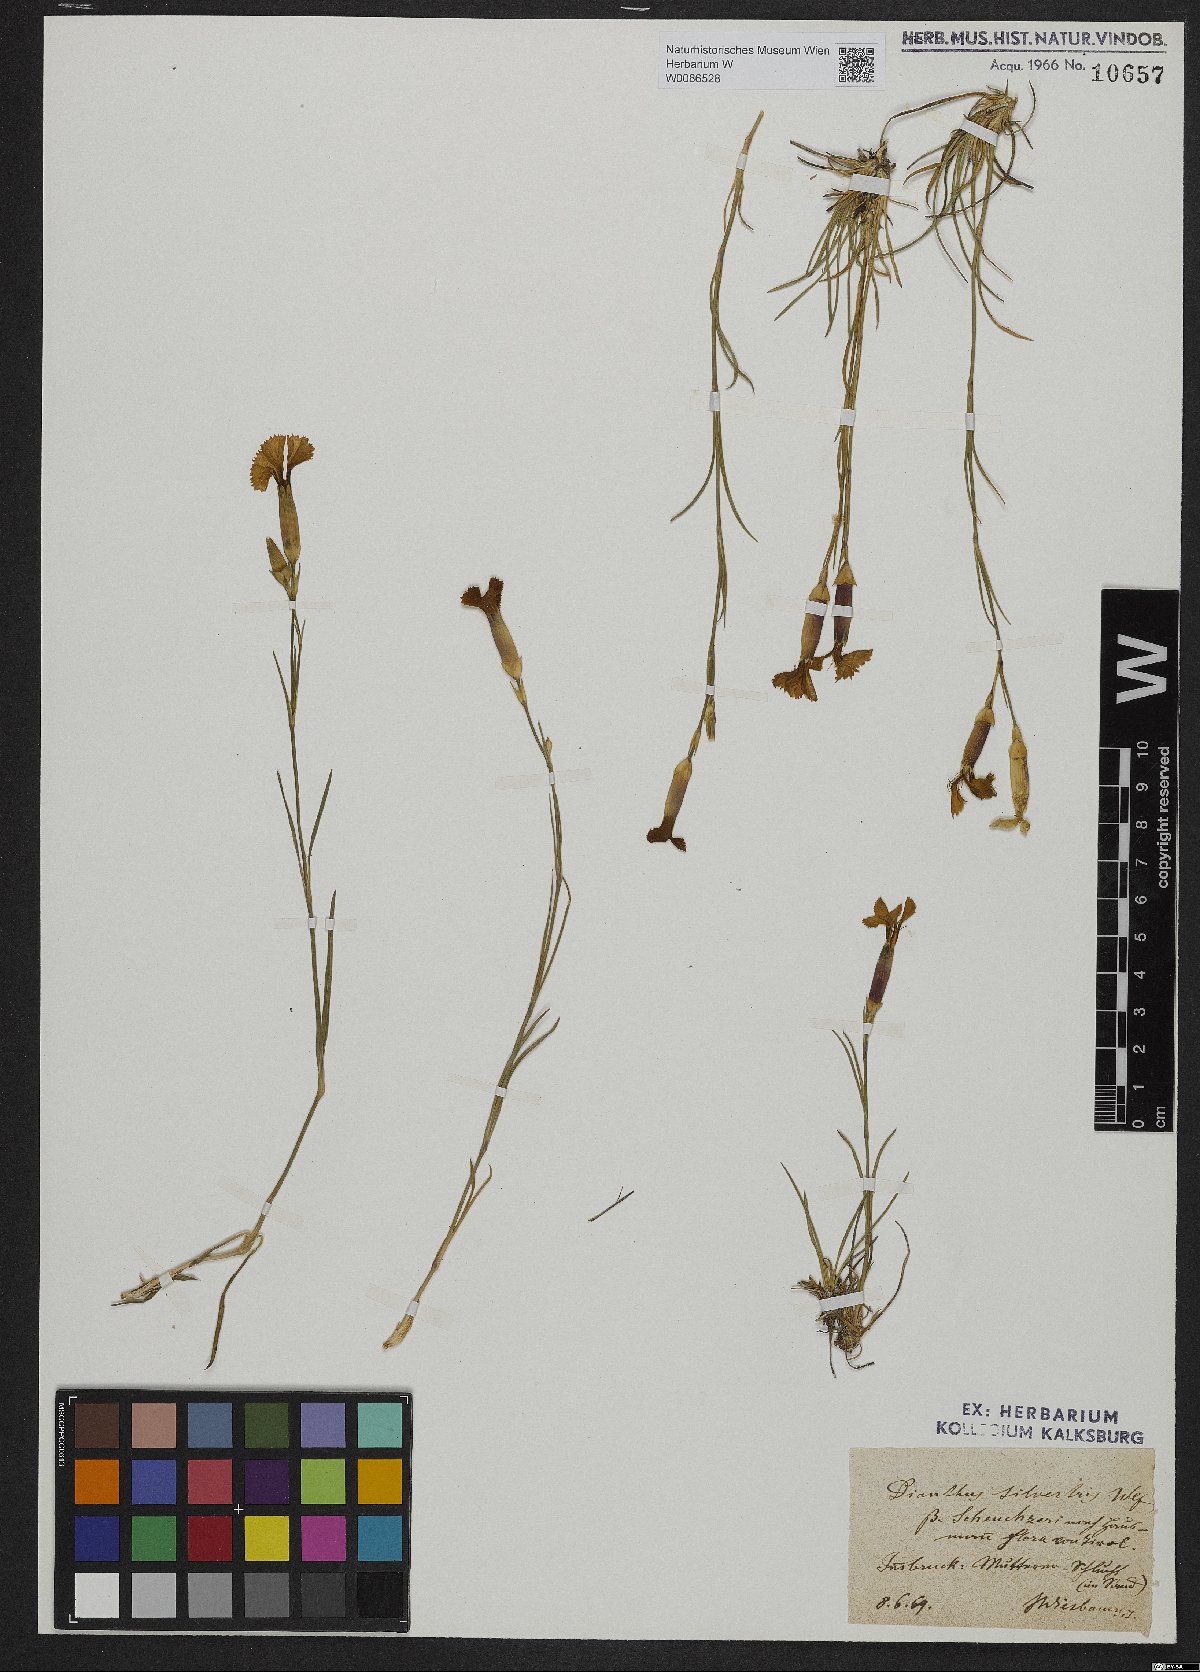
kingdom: Plantae
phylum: Tracheophyta
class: Magnoliopsida
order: Caryophyllales
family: Caryophyllaceae
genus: Dianthus
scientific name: Dianthus sylvestris
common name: Wood pink
